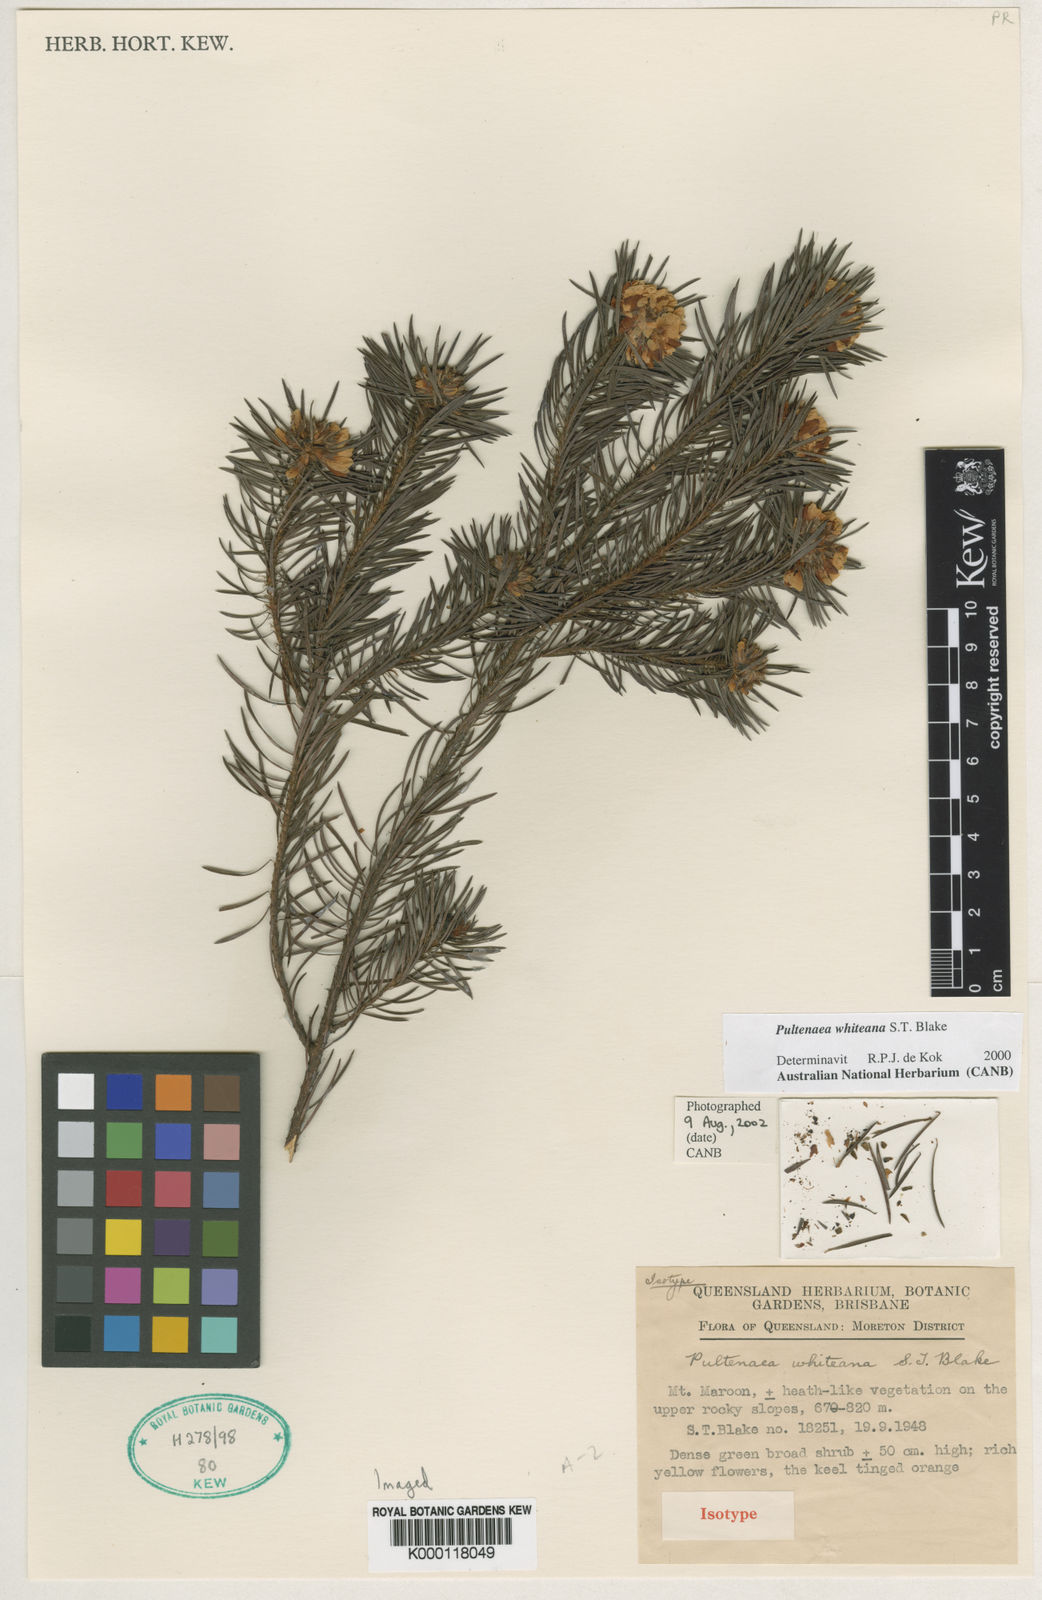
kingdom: Plantae
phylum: Tracheophyta
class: Magnoliopsida
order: Fabales
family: Fabaceae
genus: Pultenaea
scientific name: Pultenaea whiteana
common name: Mount barney bush pea
